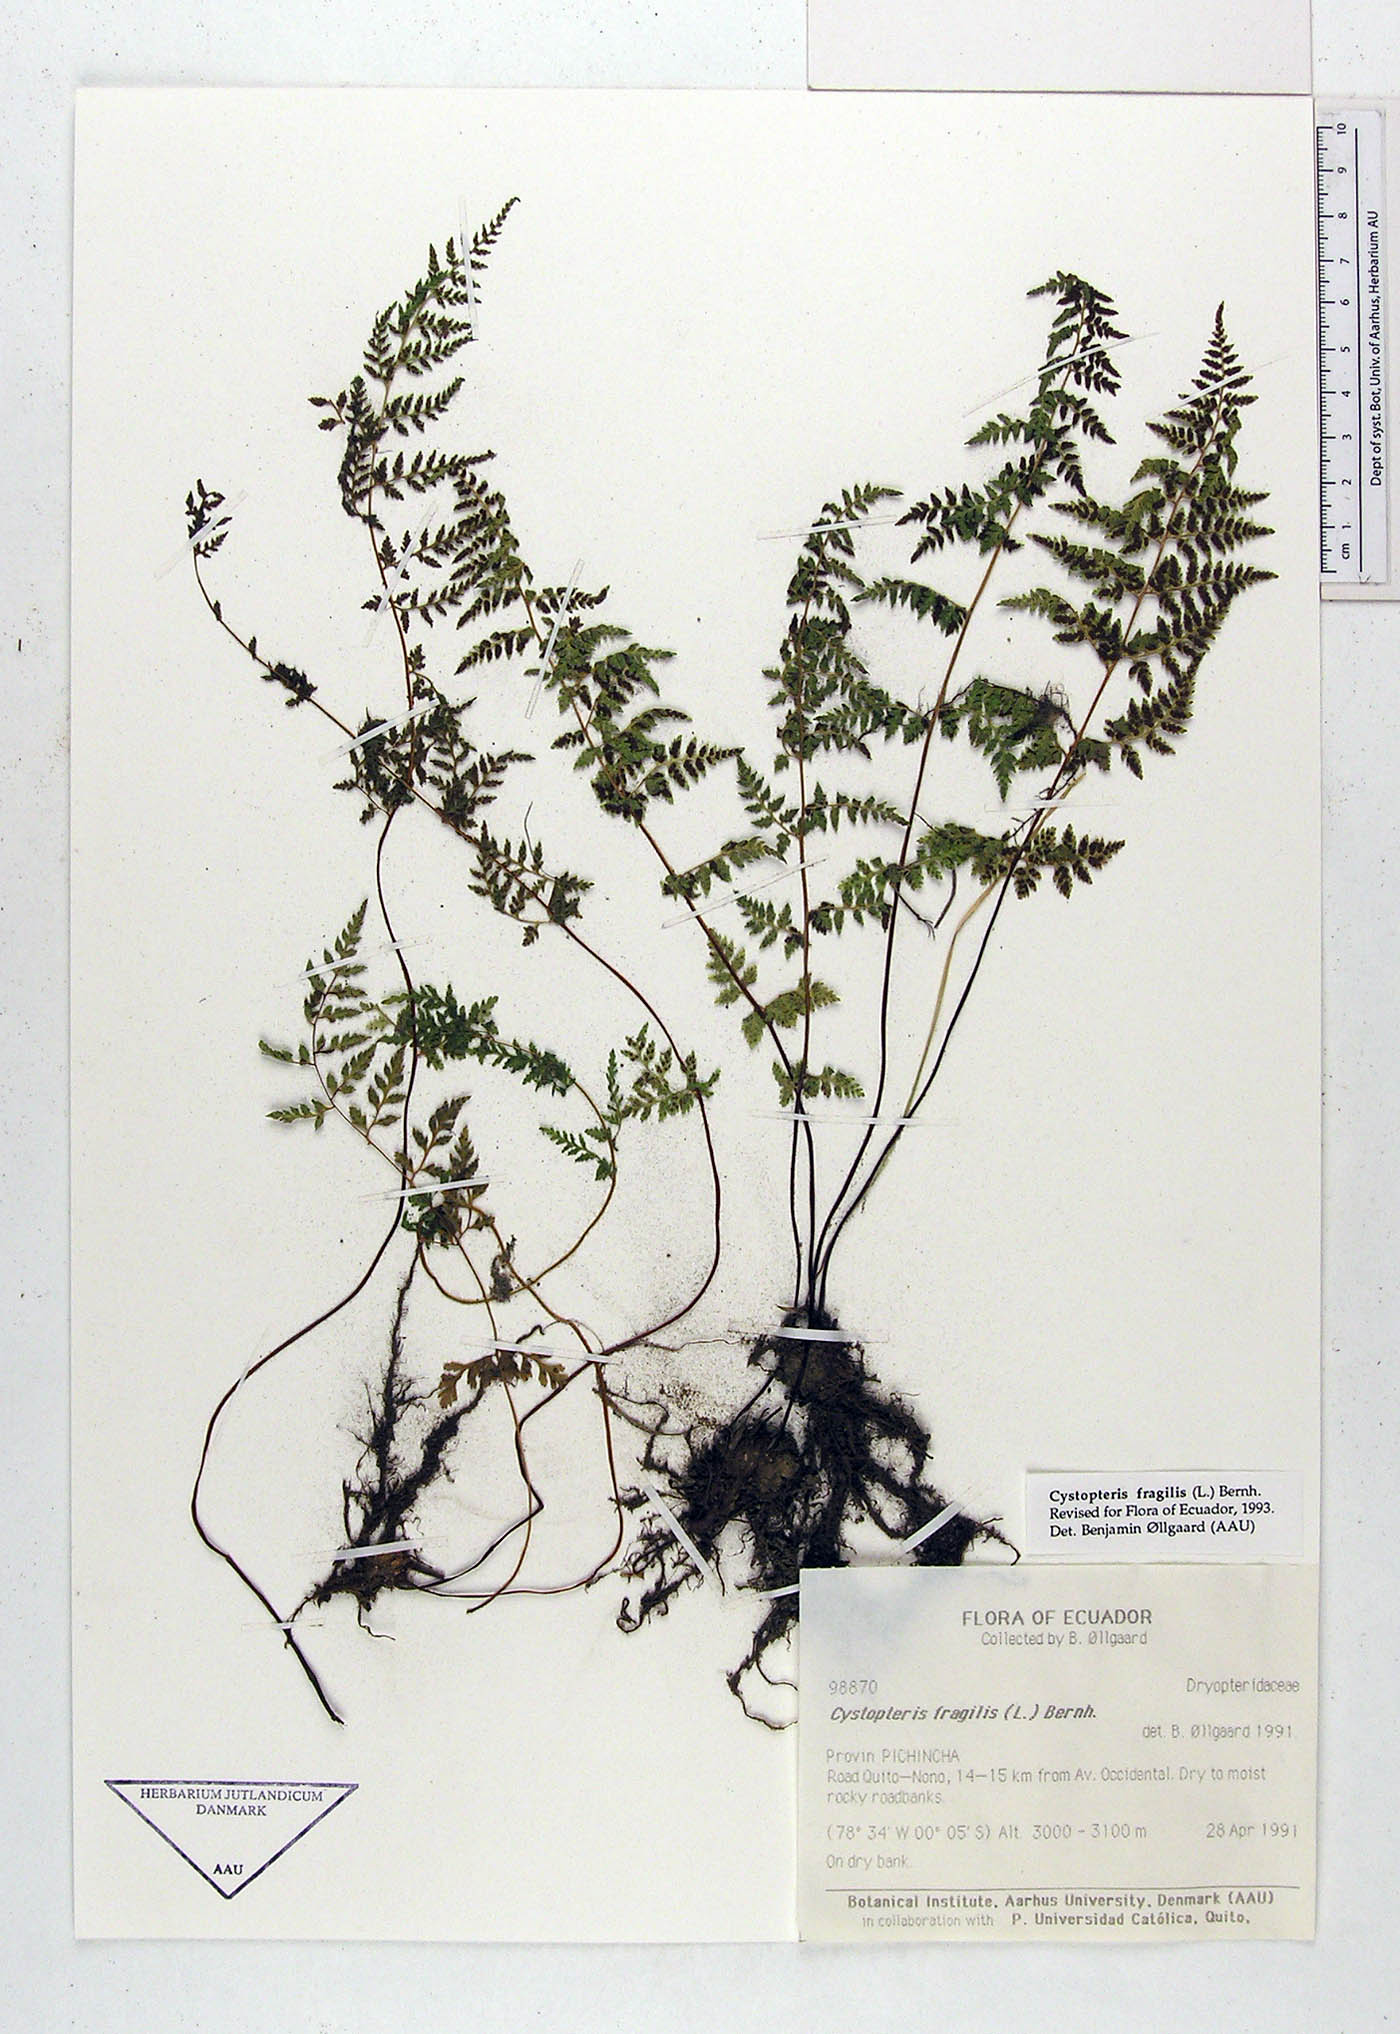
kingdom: Plantae
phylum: Tracheophyta
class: Polypodiopsida
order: Polypodiales
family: Cystopteridaceae
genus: Cystopteris
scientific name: Cystopteris fragilis
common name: Brittle bladder fern
